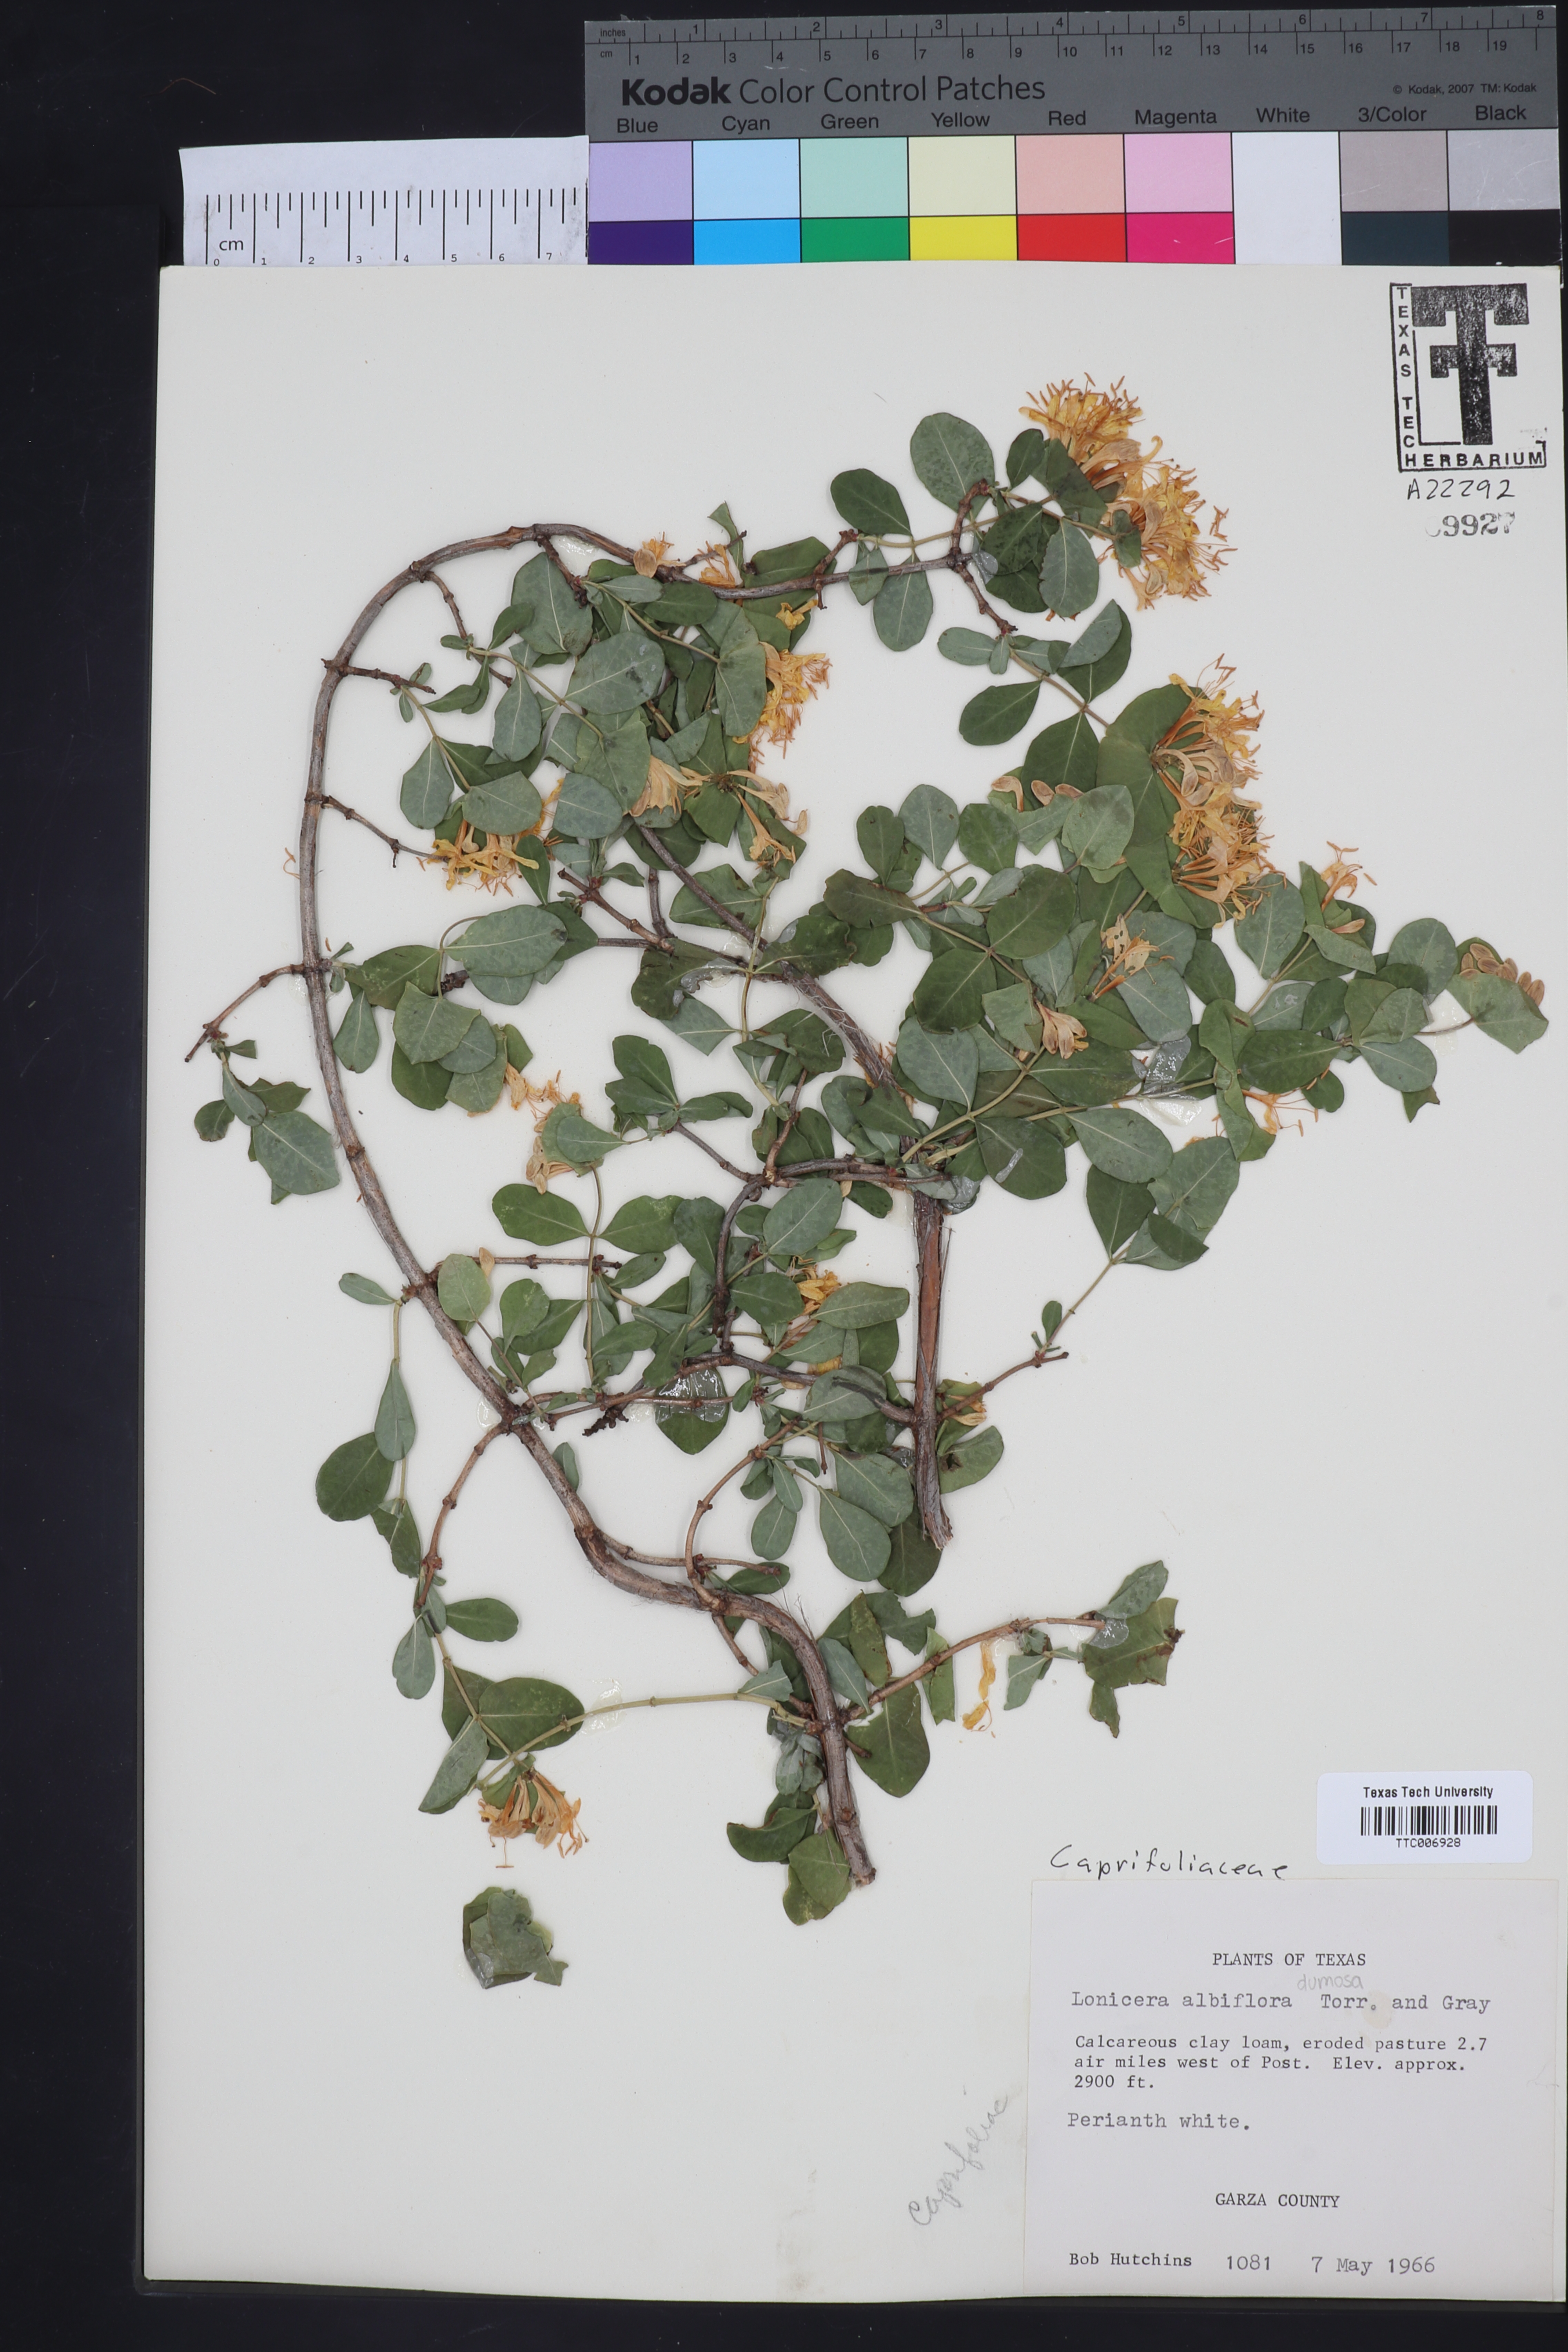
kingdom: Plantae
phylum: Tracheophyta
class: Magnoliopsida
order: Dipsacales
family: Caprifoliaceae
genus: Lonicera
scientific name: Lonicera albiflora
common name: White honeysuckle
